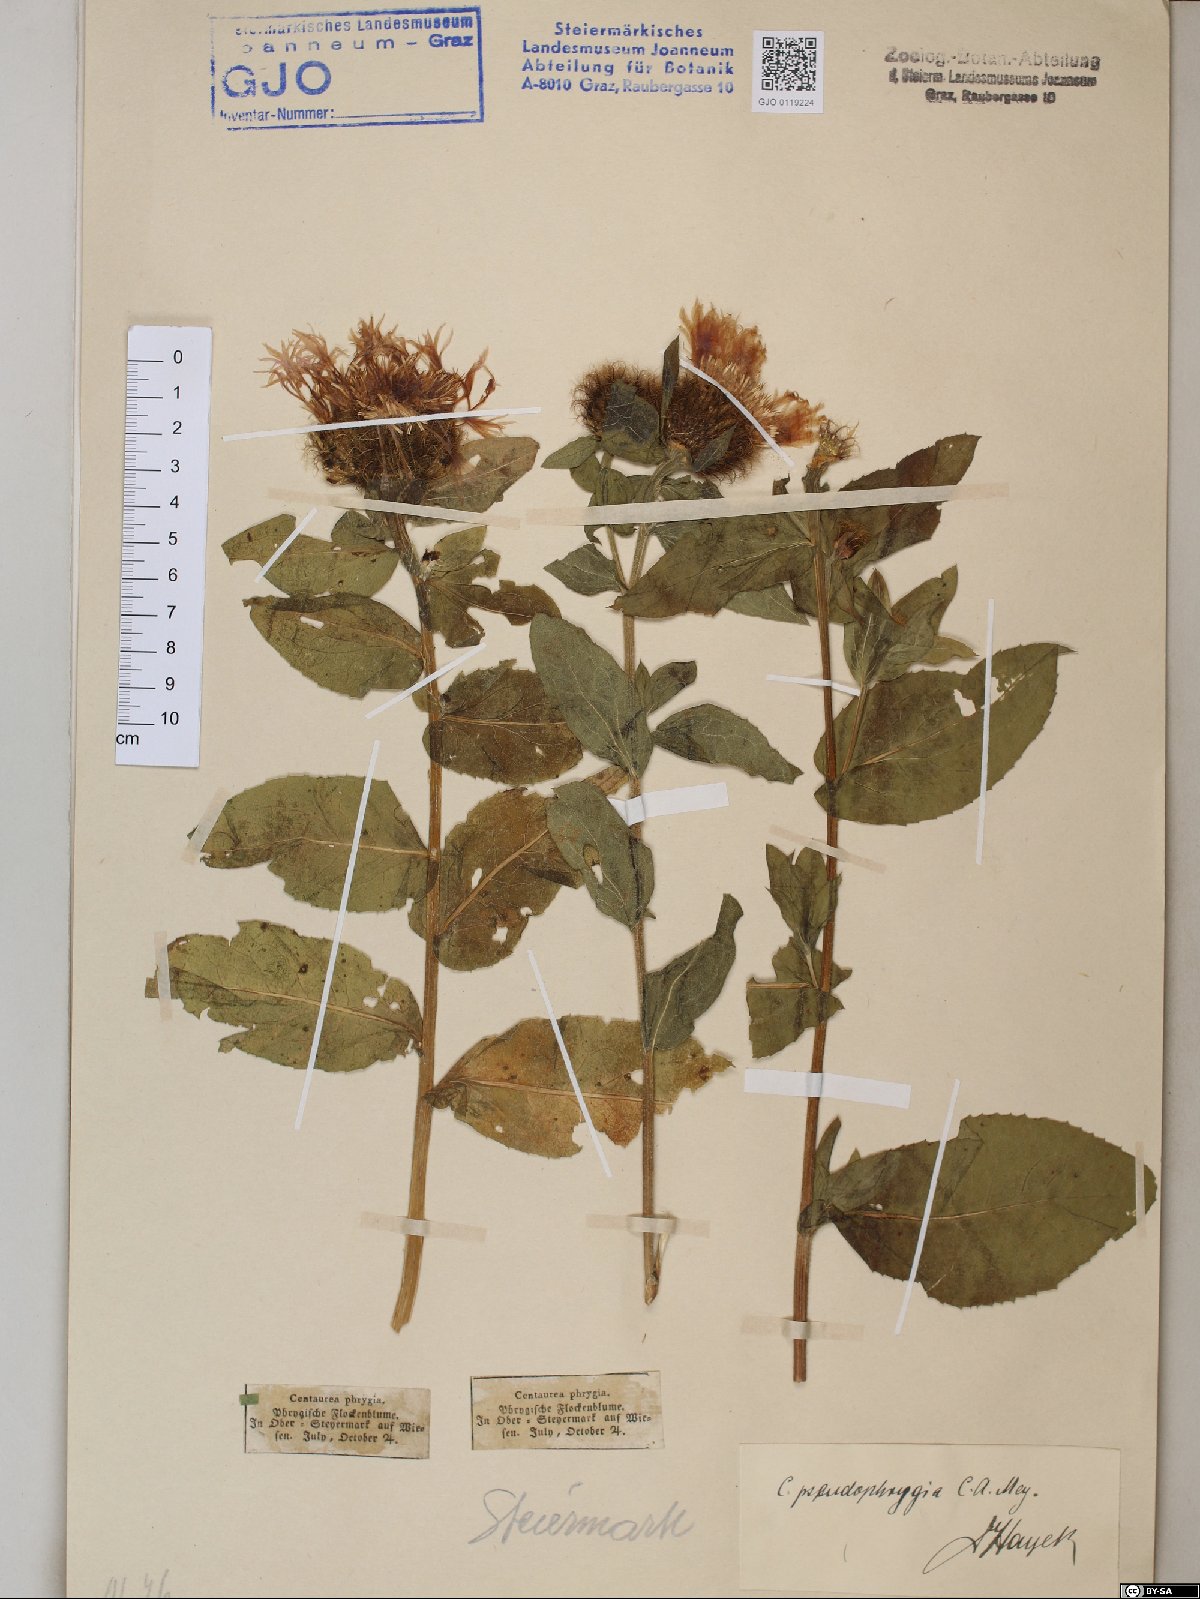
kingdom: Plantae
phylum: Tracheophyta
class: Magnoliopsida
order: Asterales
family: Asteraceae
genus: Centaurea
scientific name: Centaurea pseudophrygia
